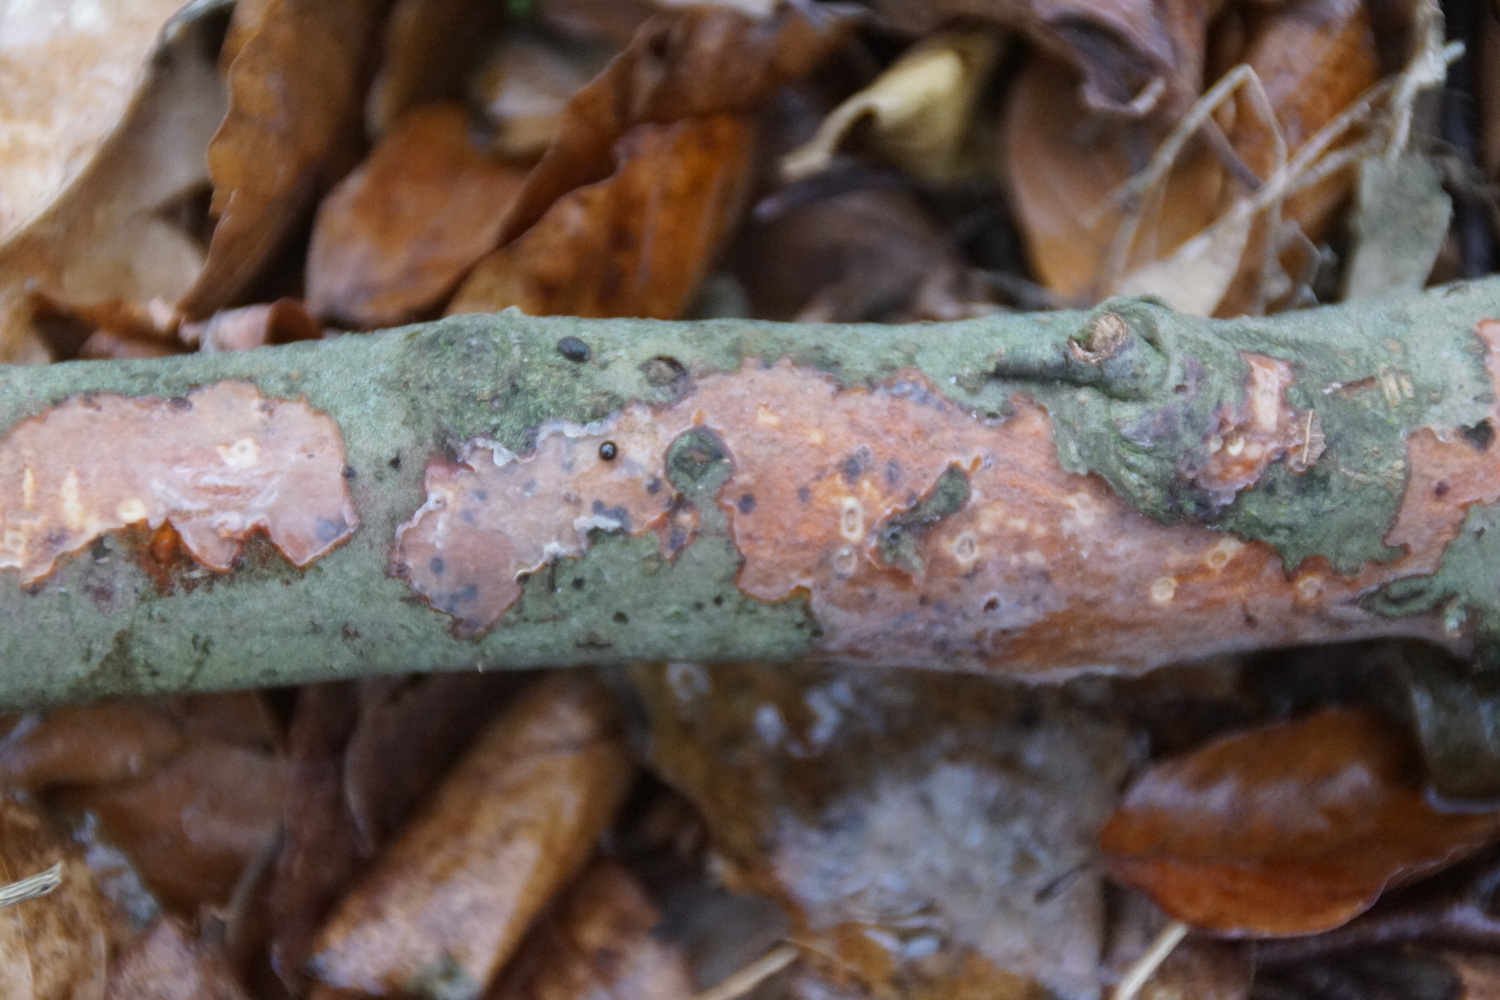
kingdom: Fungi
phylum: Basidiomycota
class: Agaricomycetes
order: Corticiales
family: Vuilleminiaceae
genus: Vuilleminia
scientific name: Vuilleminia comedens
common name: almindelig barksprænger
